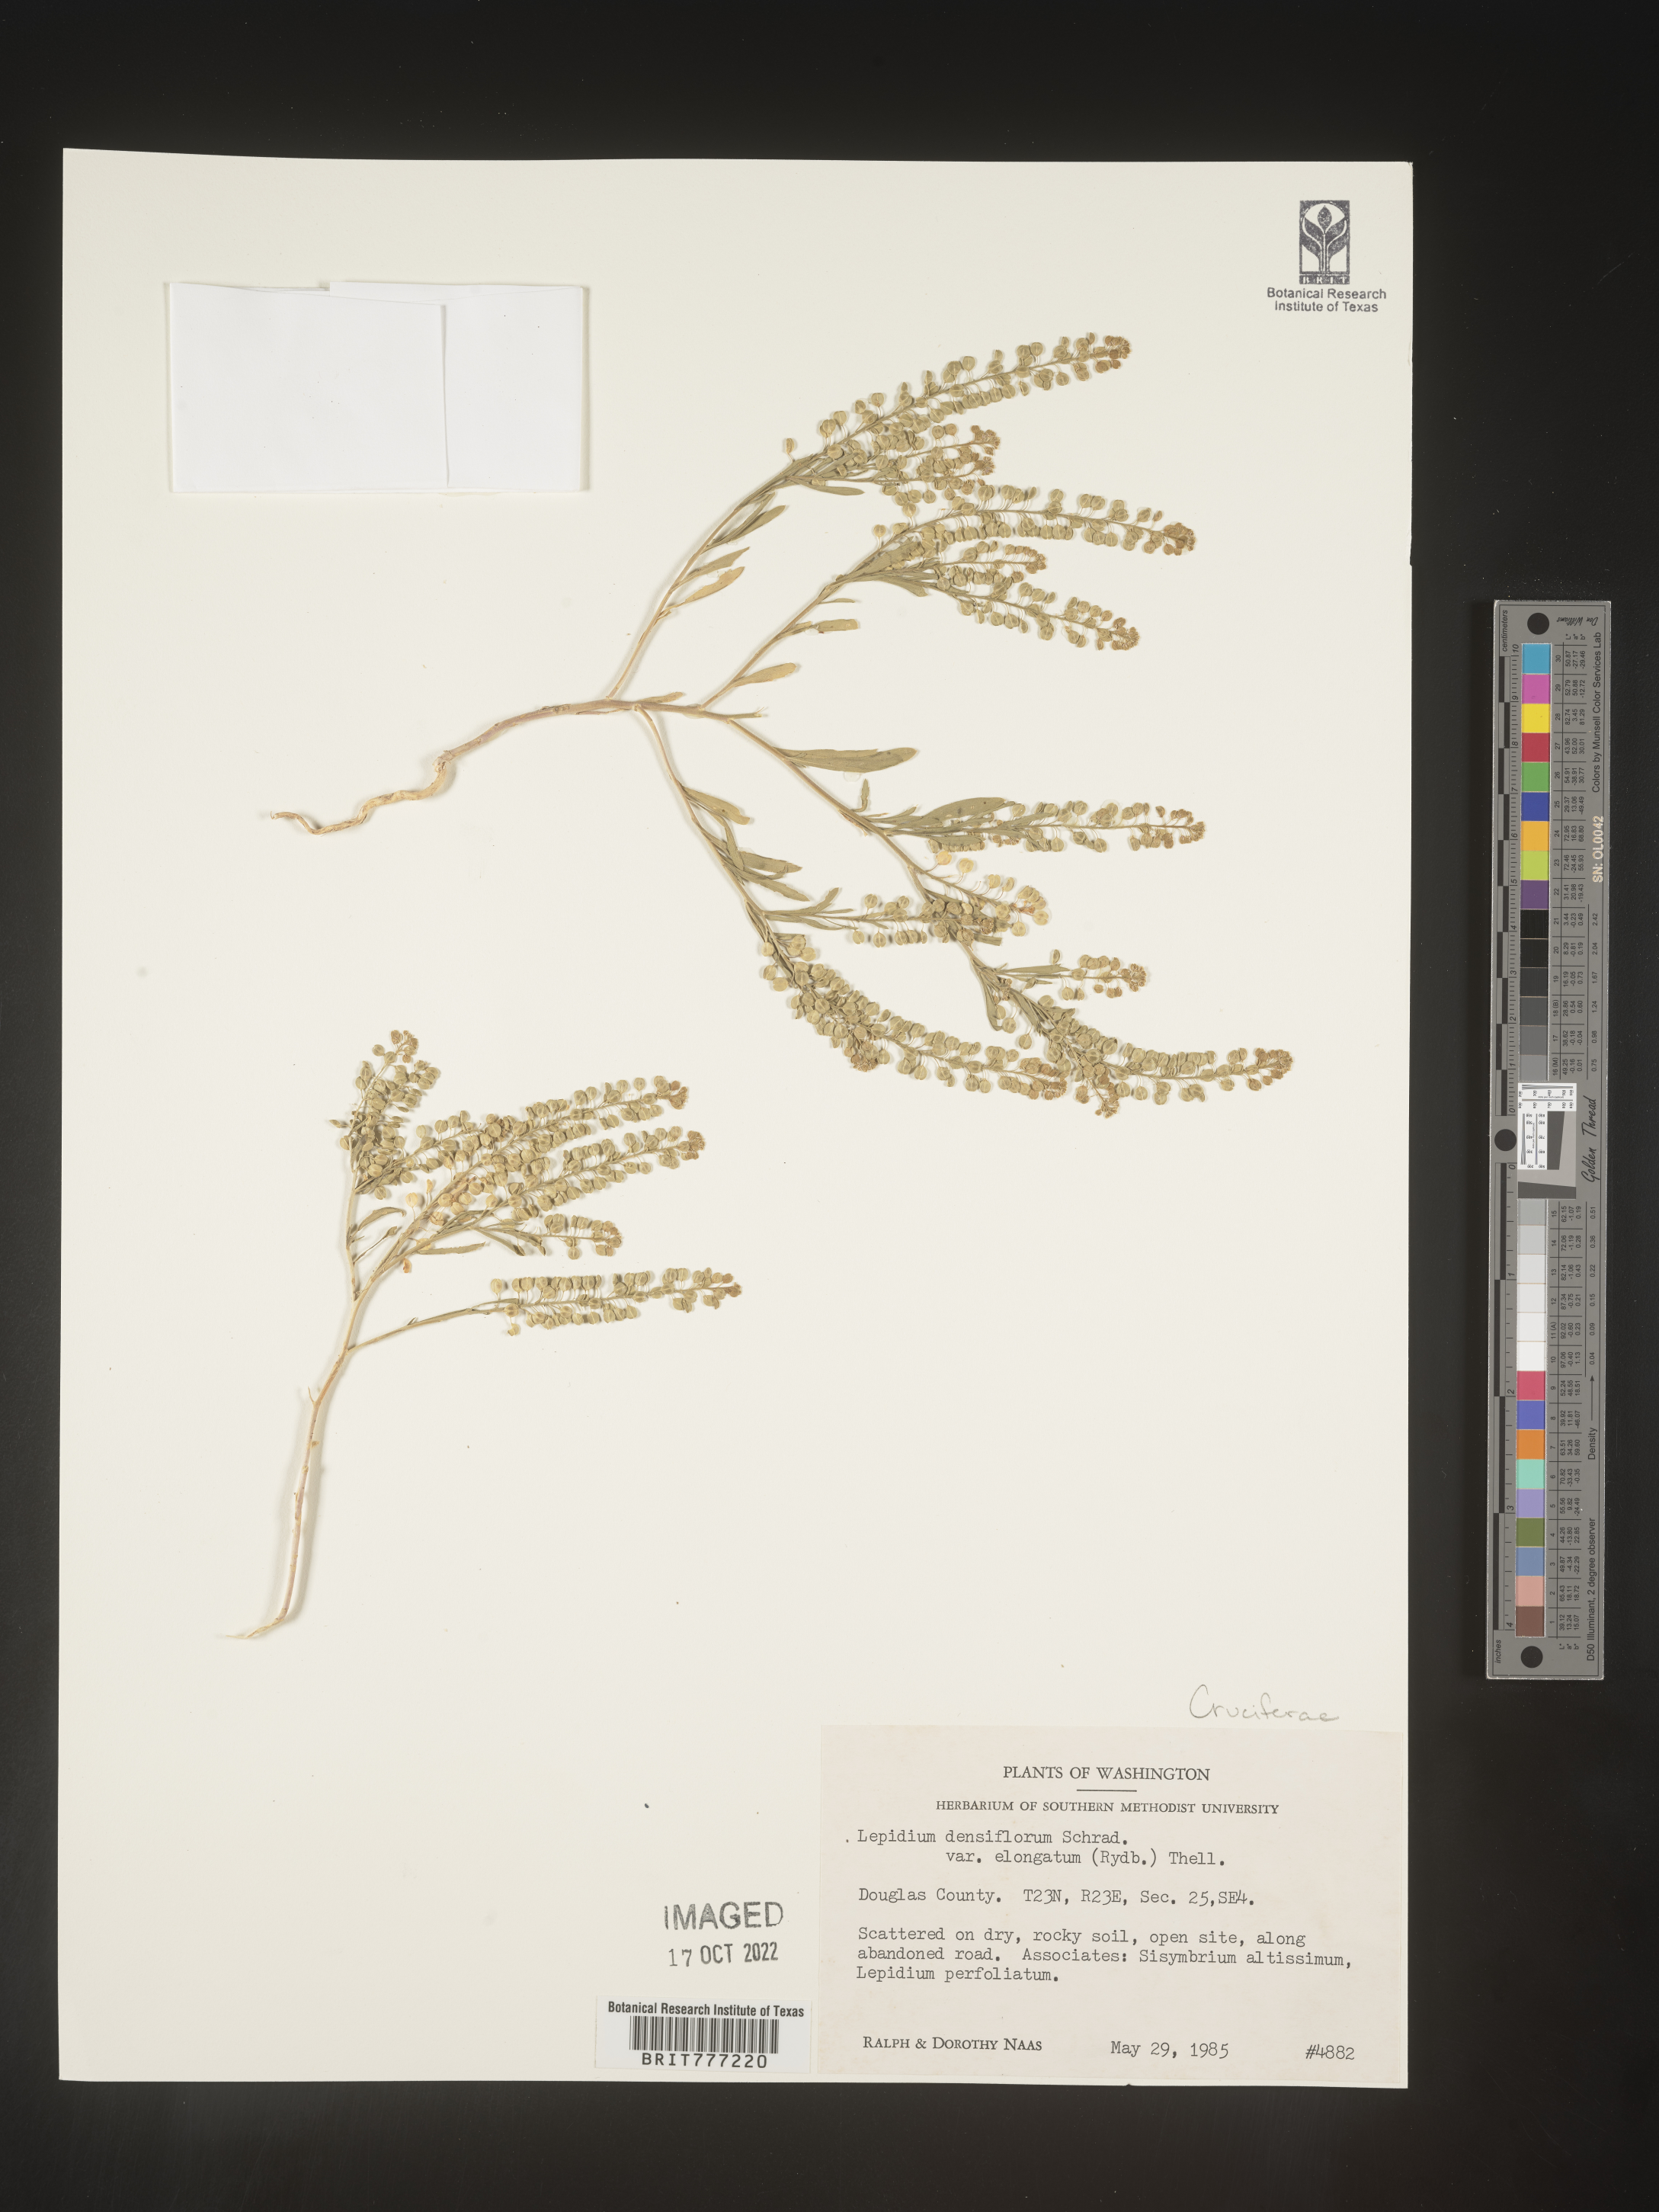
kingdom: Plantae
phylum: Tracheophyta
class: Magnoliopsida
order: Brassicales
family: Brassicaceae
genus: Lepidium
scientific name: Lepidium densiflorum
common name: Miner's pepperwort
